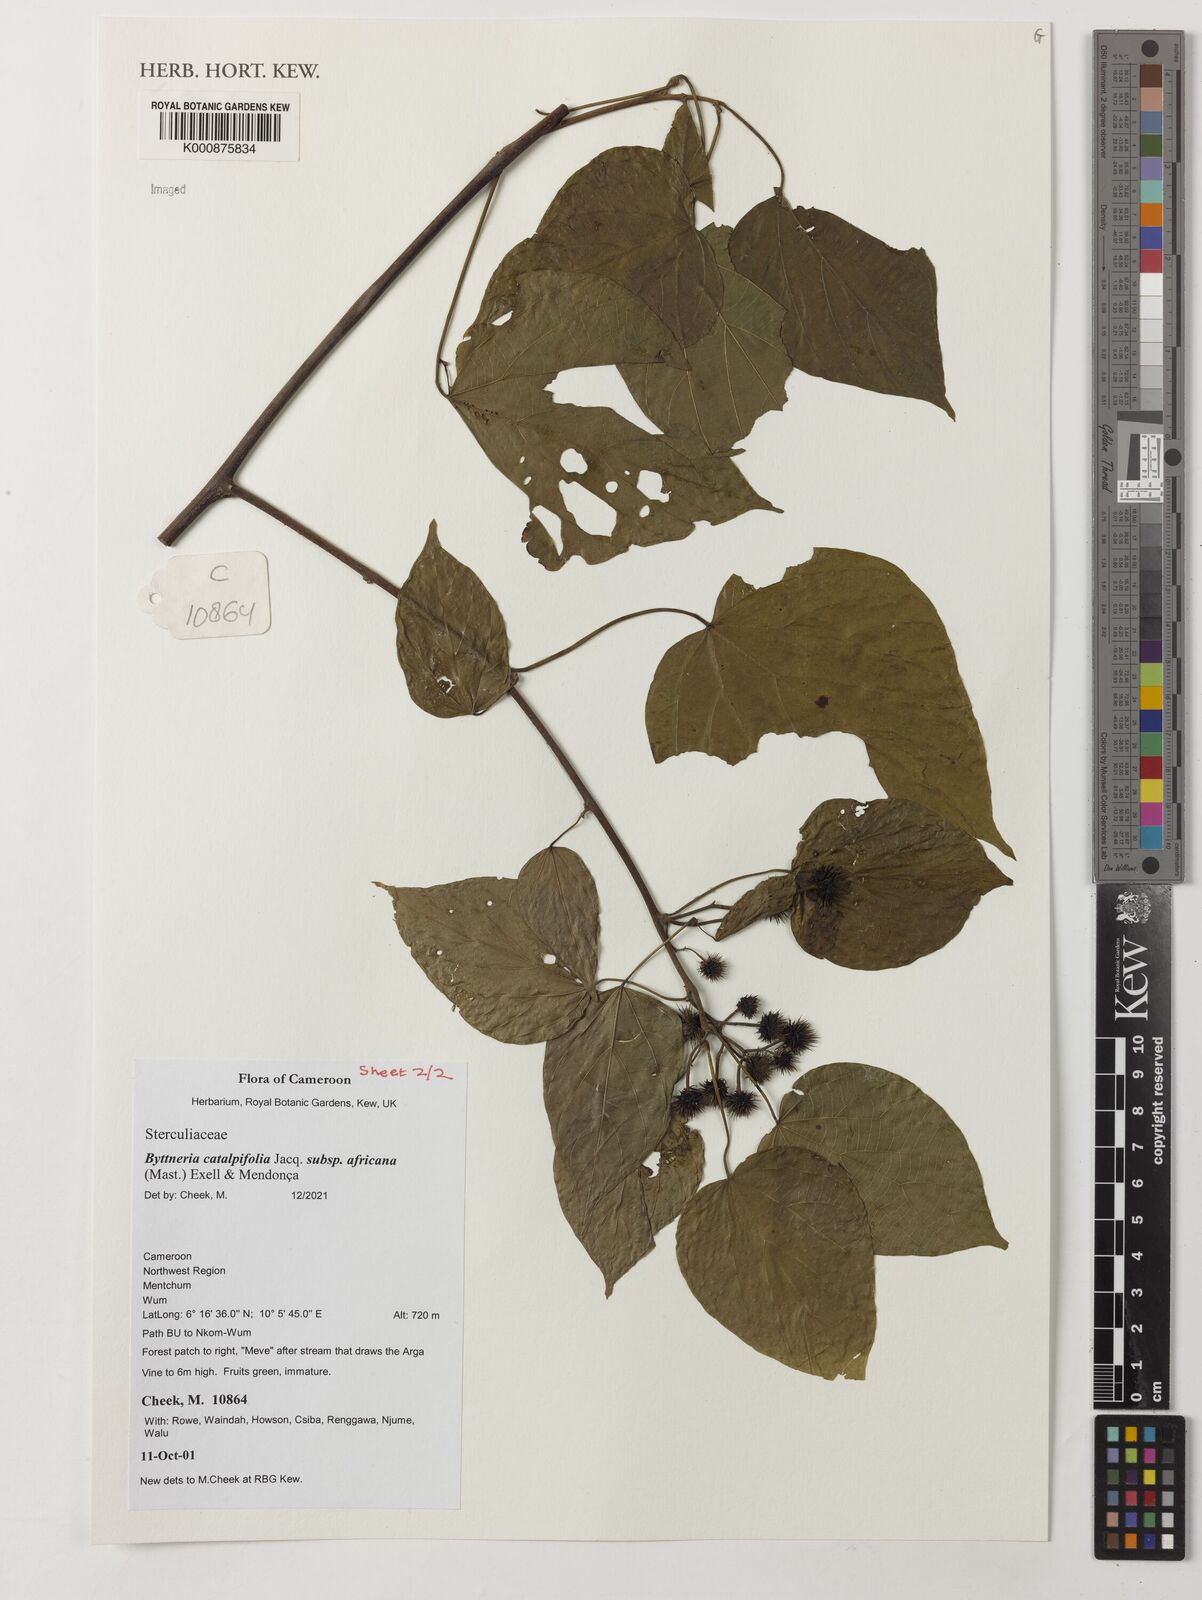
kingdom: Plantae
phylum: Tracheophyta
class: Magnoliopsida
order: Malvales
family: Malvaceae
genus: Byttneria
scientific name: Byttneria catalpifolia
